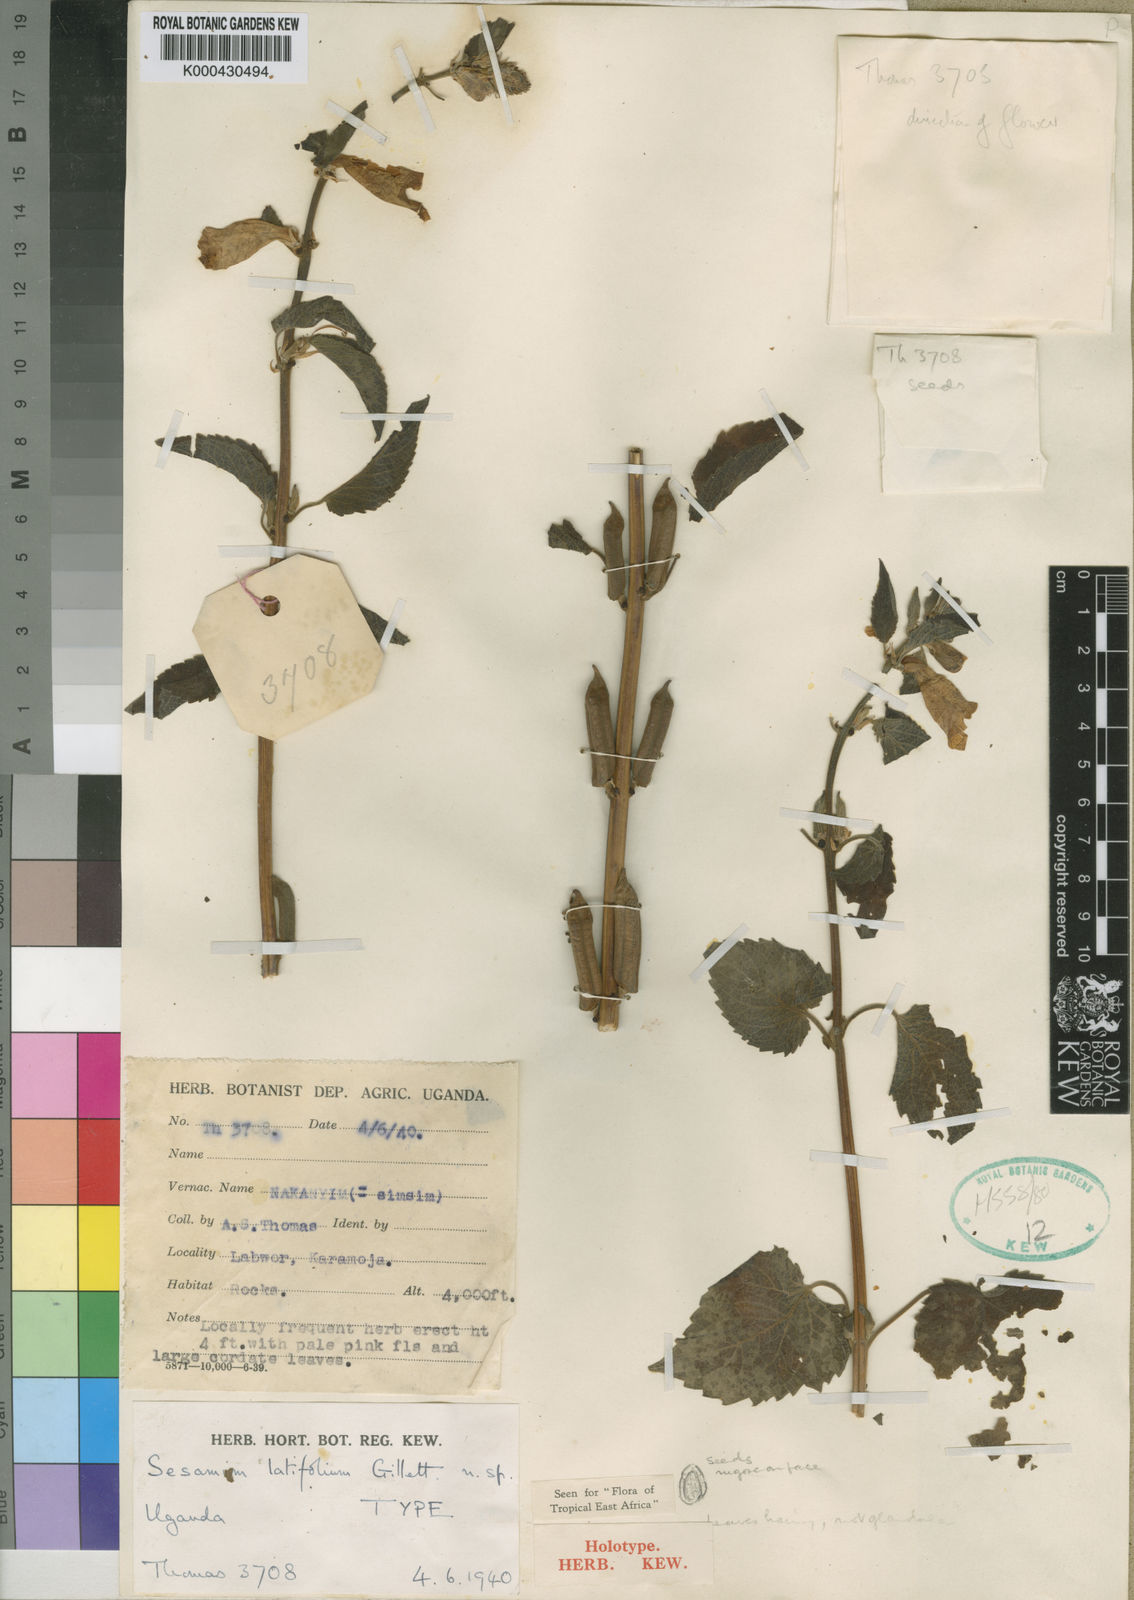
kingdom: Plantae
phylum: Tracheophyta
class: Magnoliopsida
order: Lamiales
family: Pedaliaceae
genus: Sesamum
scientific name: Sesamum latifolium
